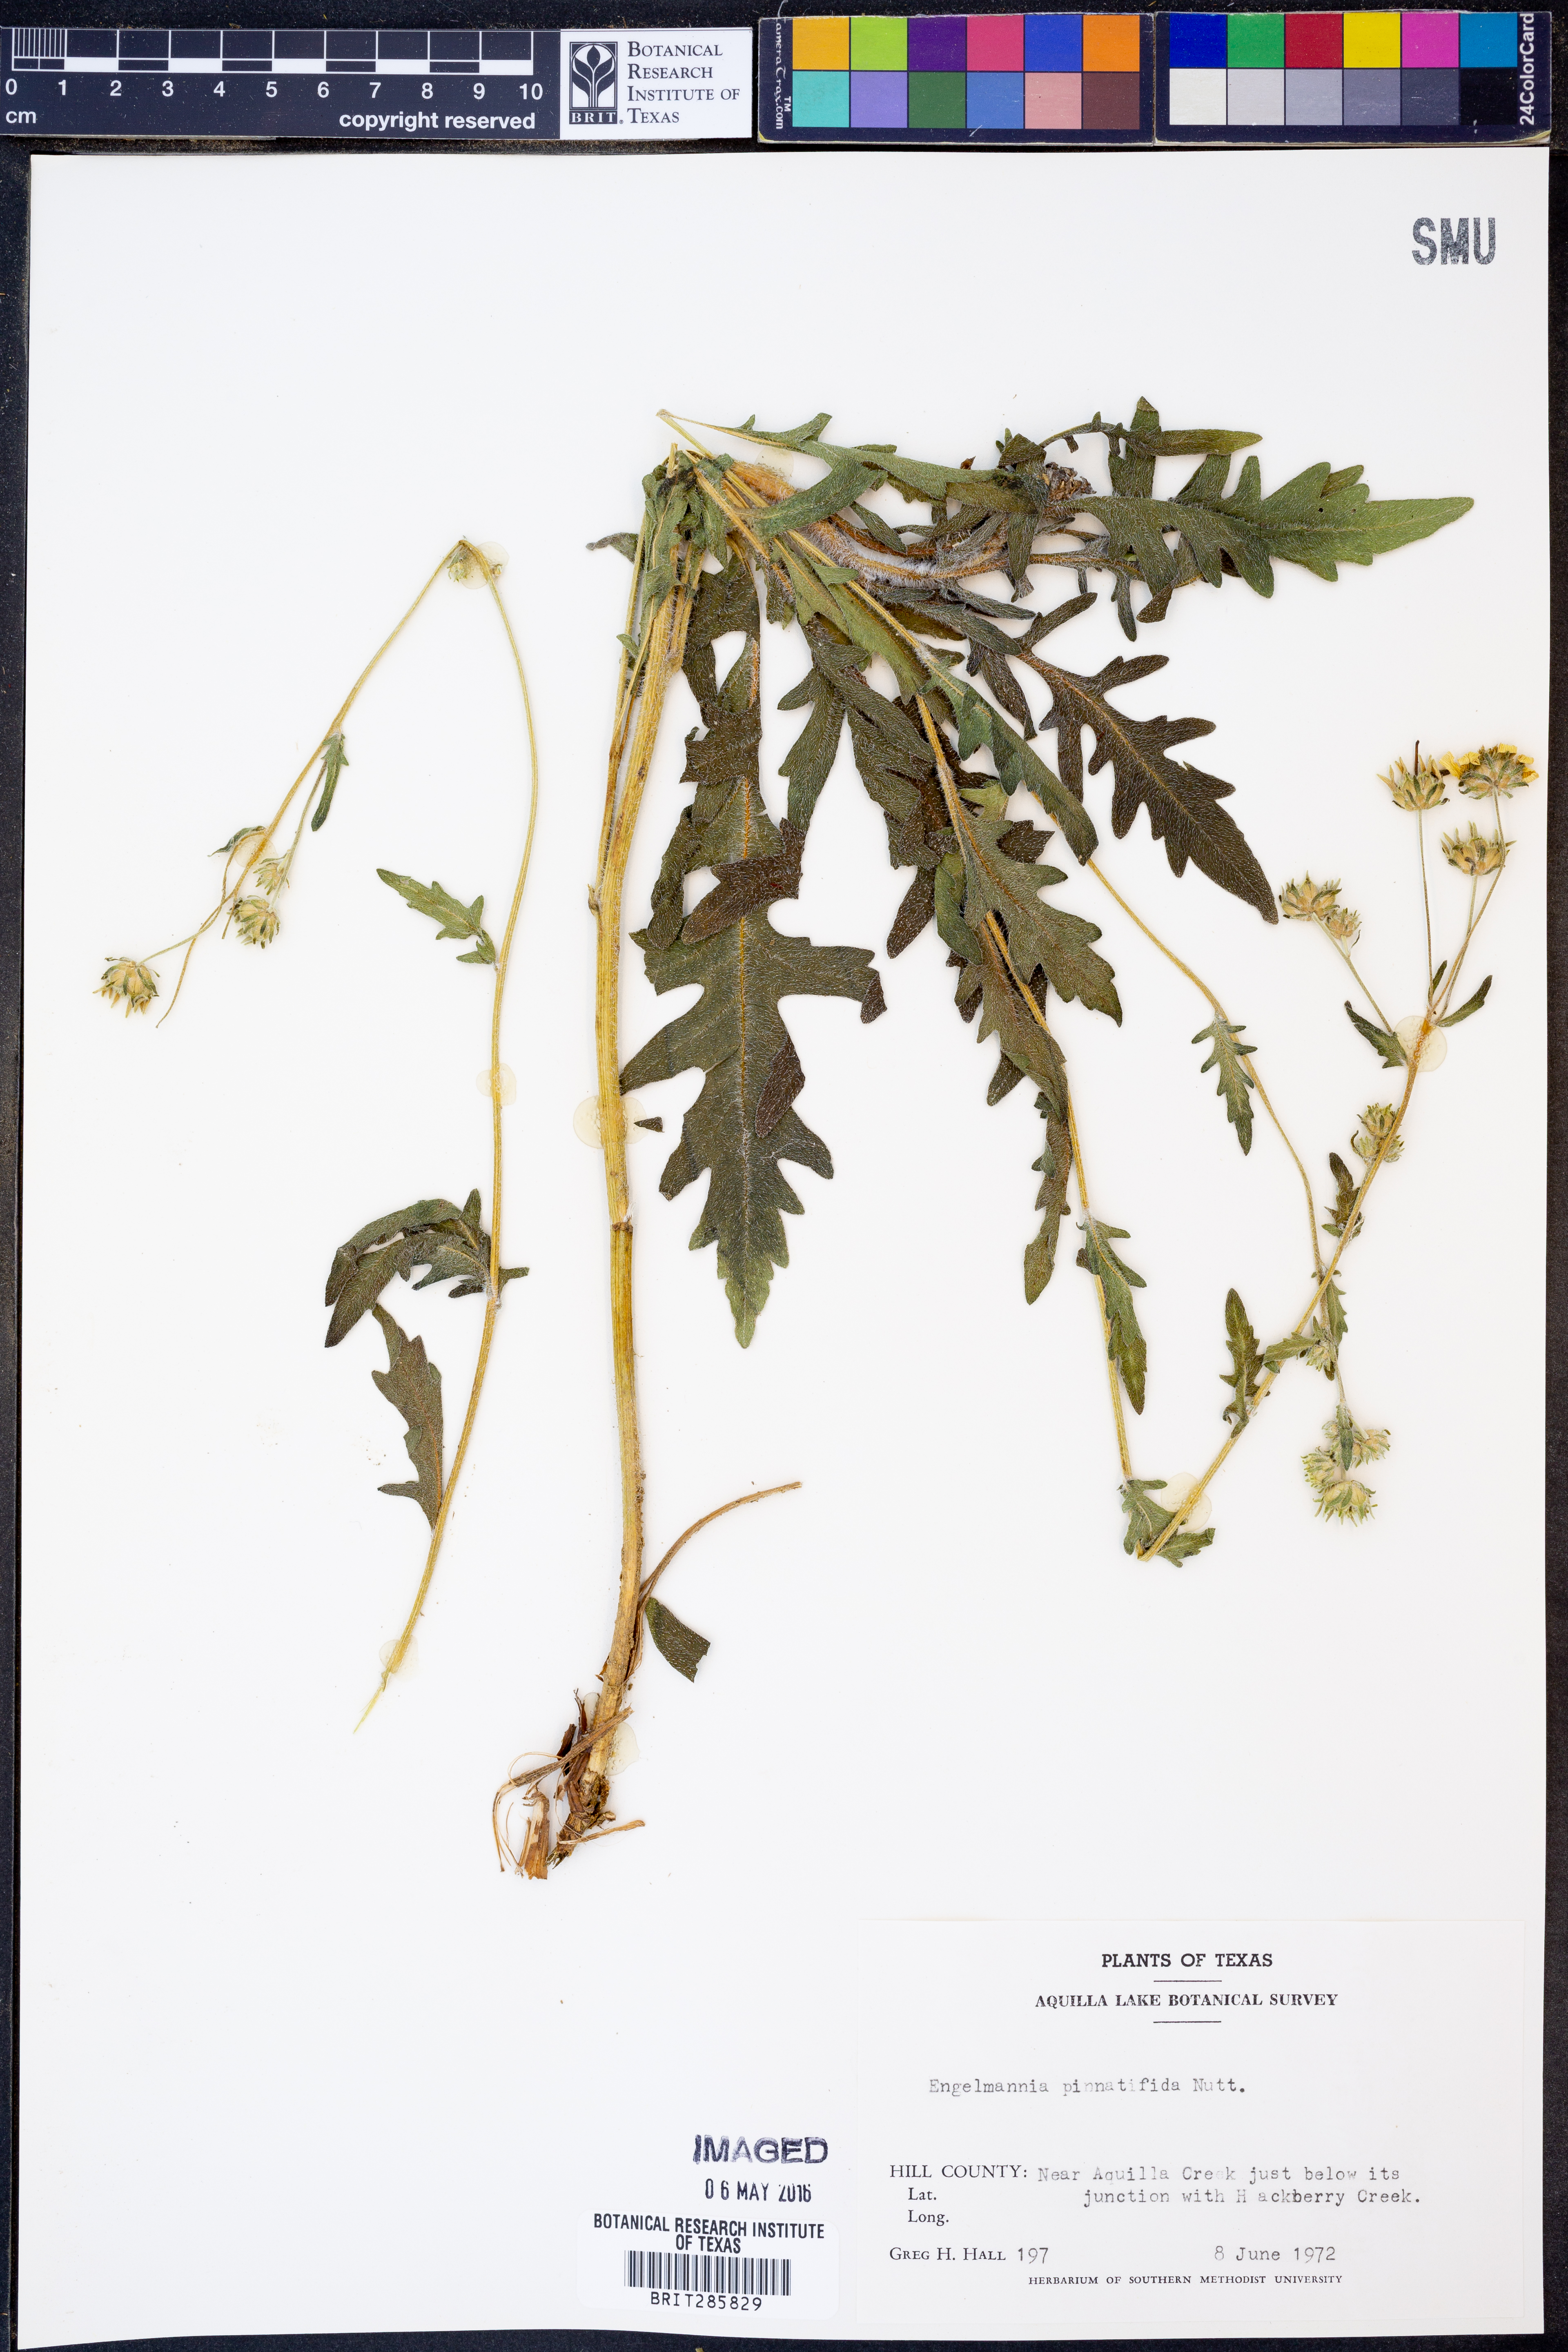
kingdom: Plantae
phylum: Tracheophyta
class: Magnoliopsida
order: Asterales
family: Asteraceae
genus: Engelmannia
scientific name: Engelmannia peristenia
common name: Engelmann's daisy
